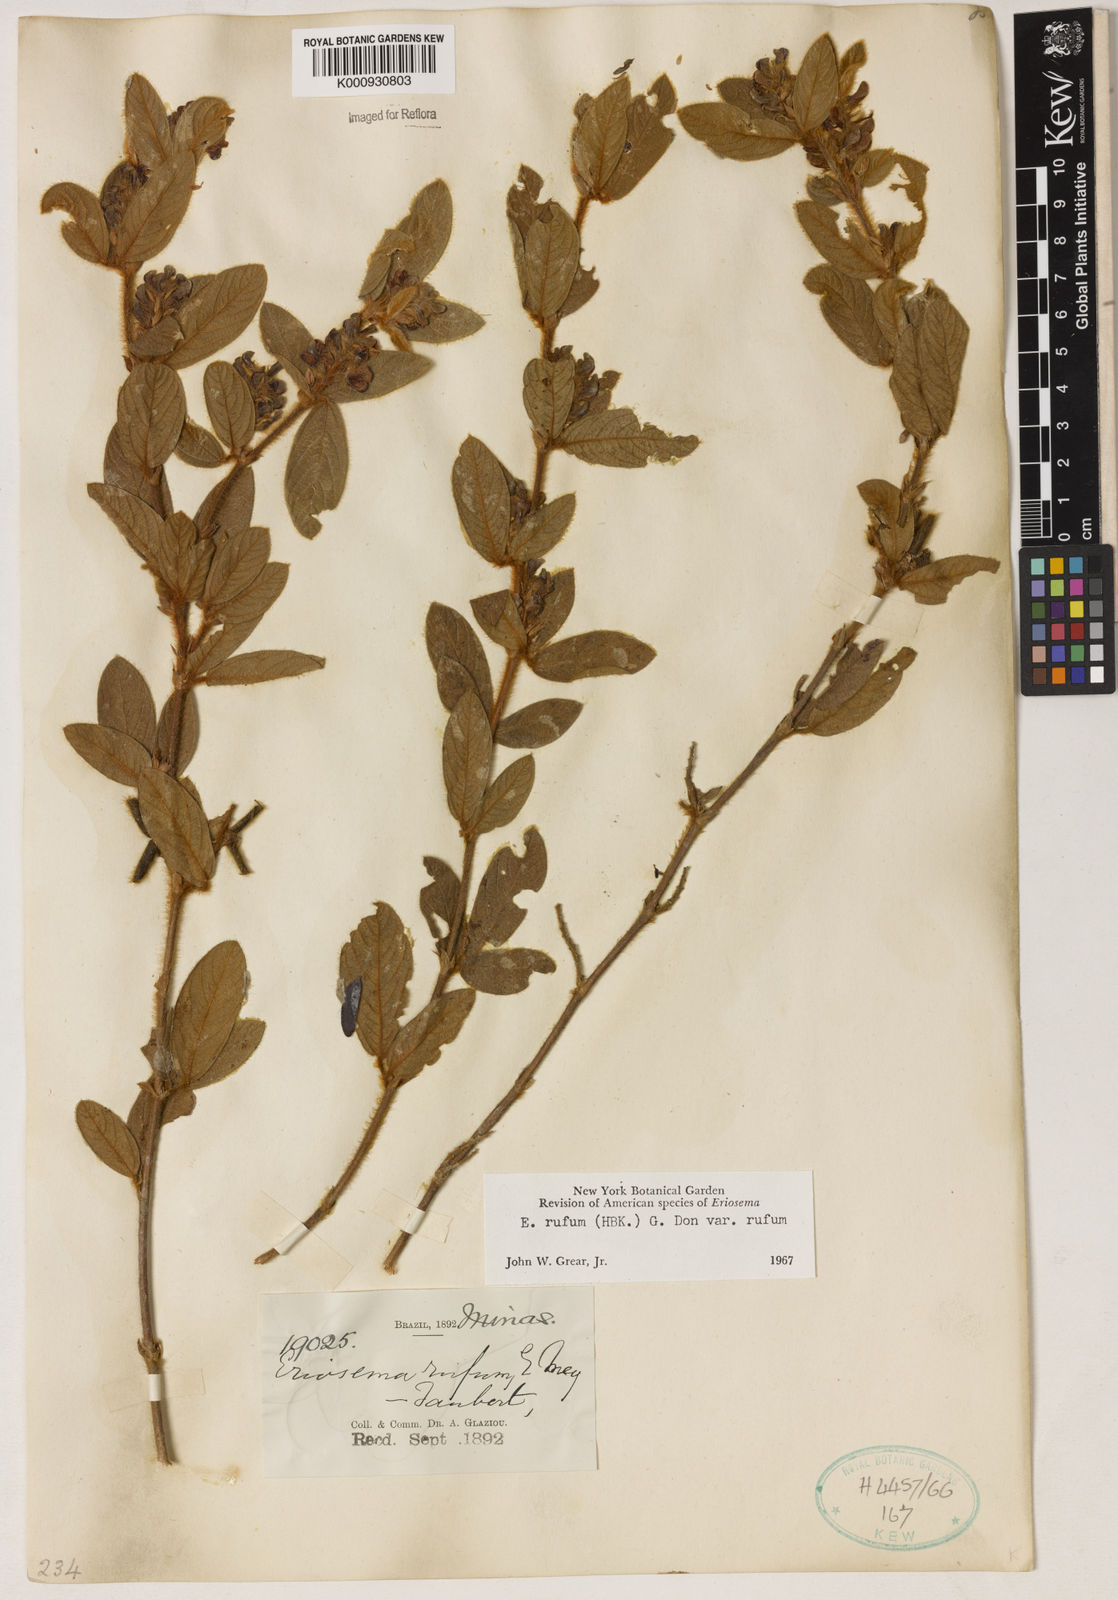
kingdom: Plantae
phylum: Tracheophyta
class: Magnoliopsida
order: Fabales
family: Fabaceae
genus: Eriosema
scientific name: Eriosema rufum
